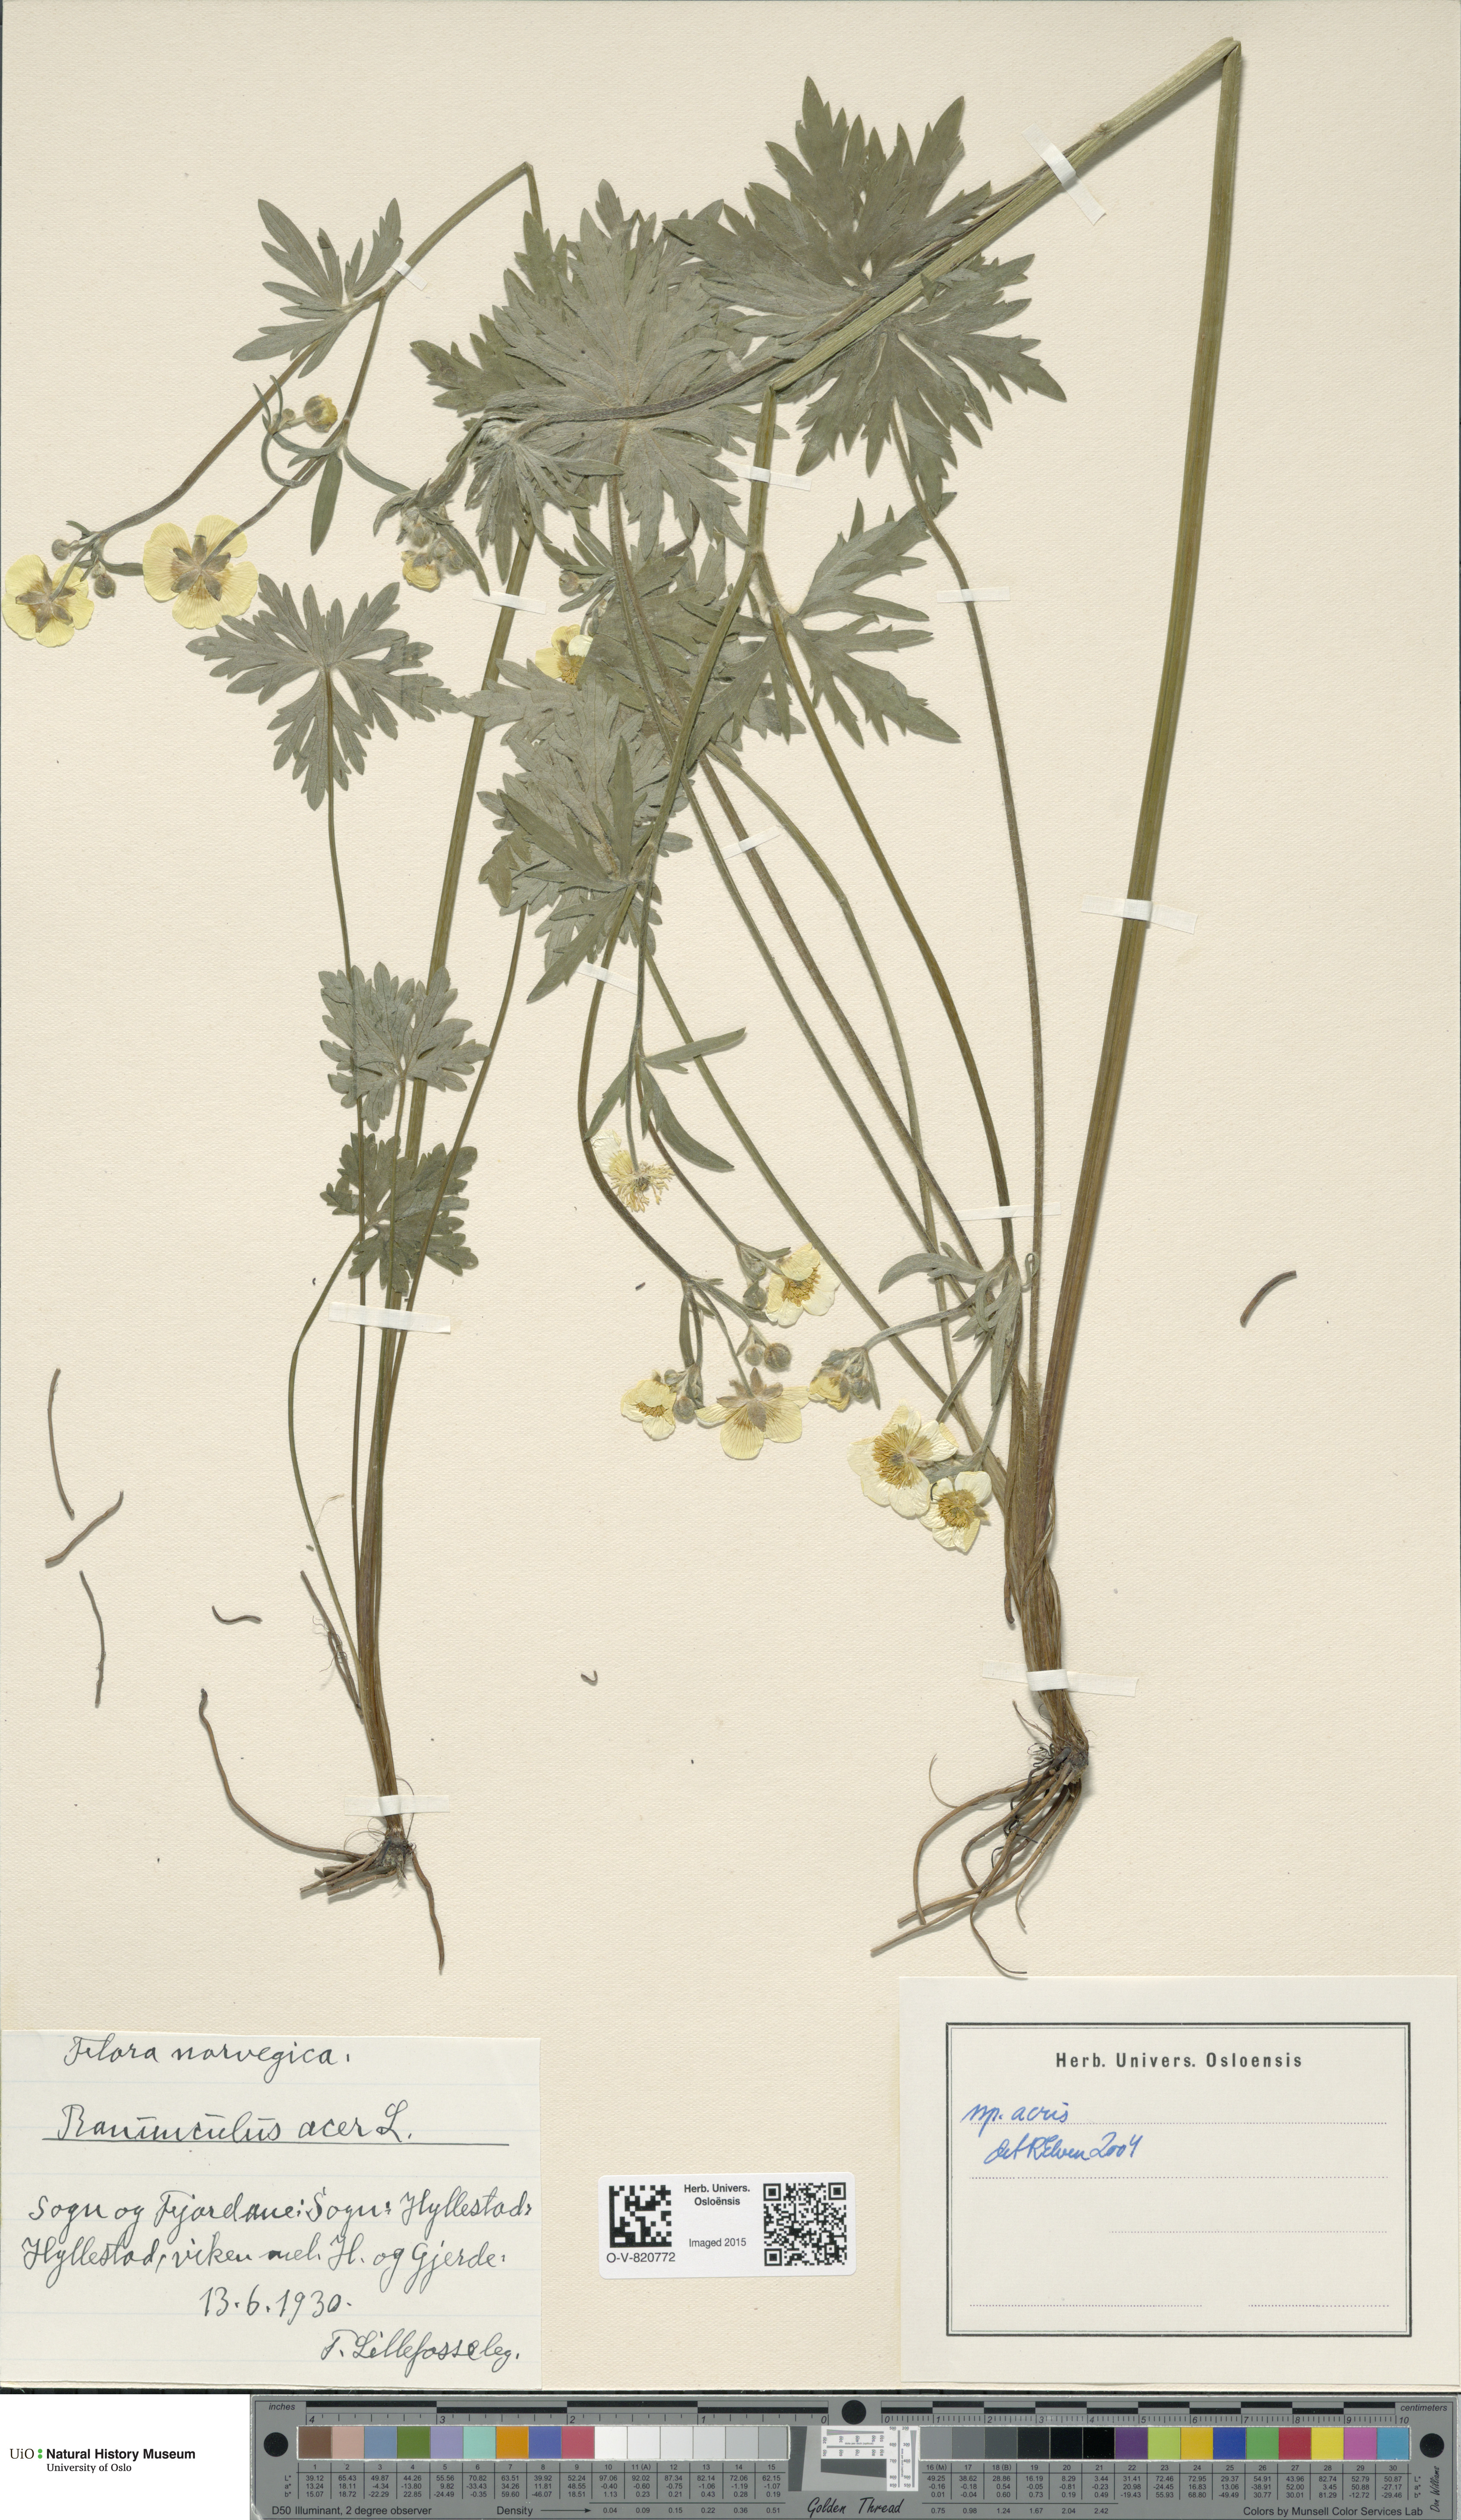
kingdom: Plantae
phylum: Tracheophyta
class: Magnoliopsida
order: Ranunculales
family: Ranunculaceae
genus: Ranunculus
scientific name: Ranunculus acris
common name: Meadow buttercup
